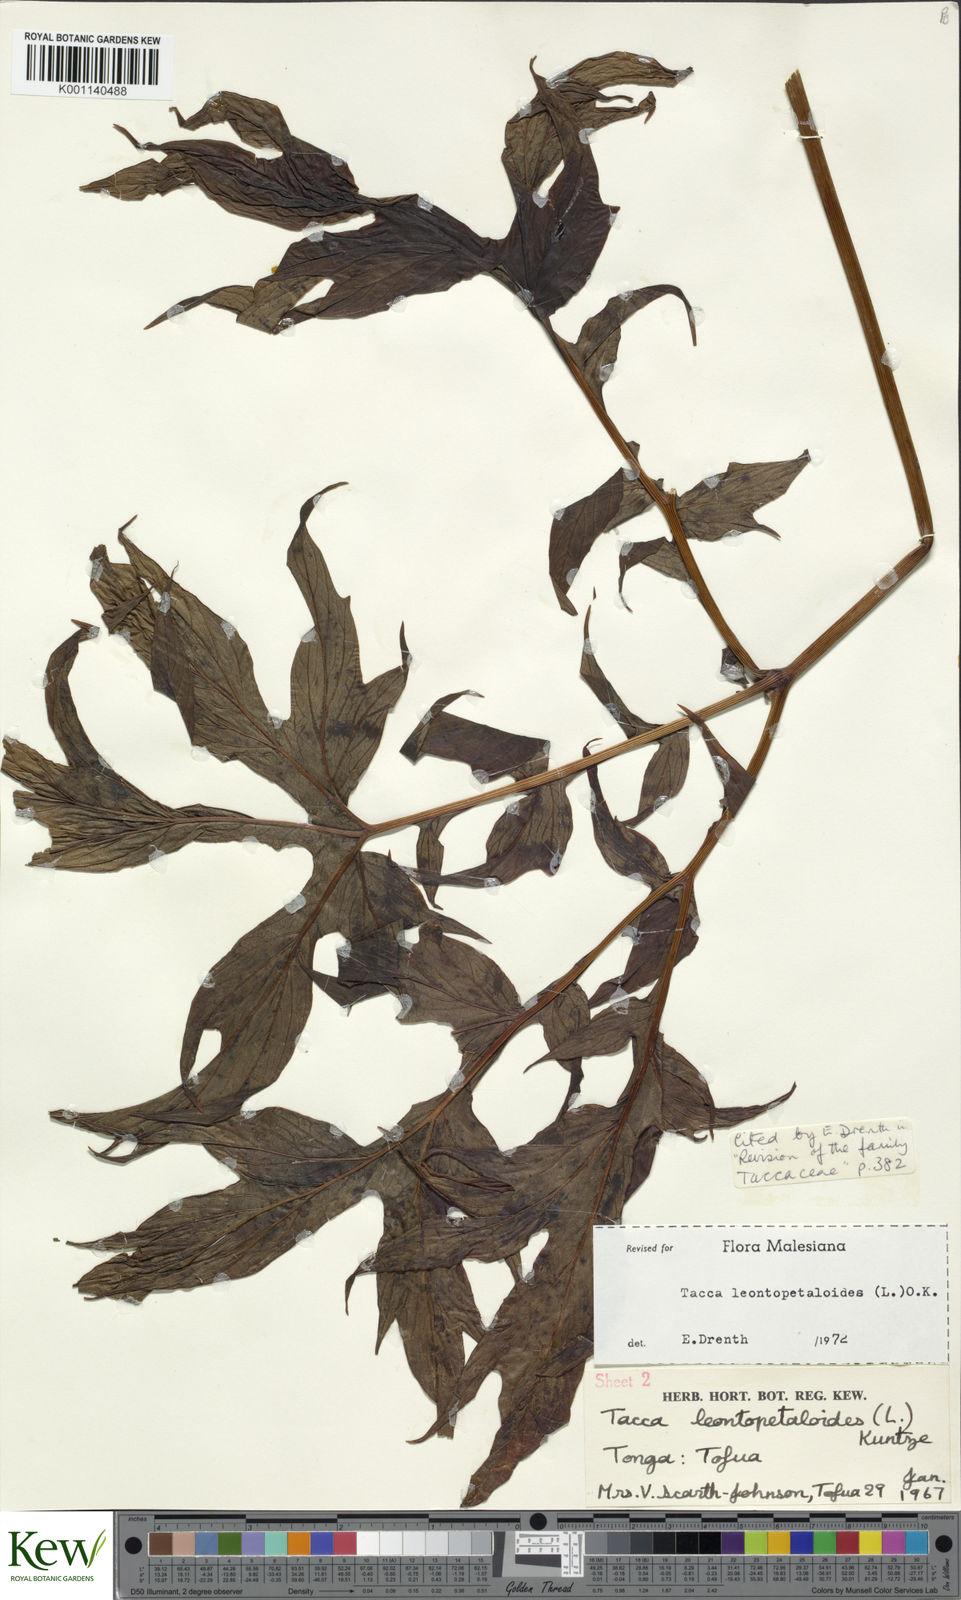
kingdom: Plantae
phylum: Tracheophyta
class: Liliopsida
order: Dioscoreales
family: Dioscoreaceae
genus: Tacca
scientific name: Tacca leontopetaloides
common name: Arrowroot
